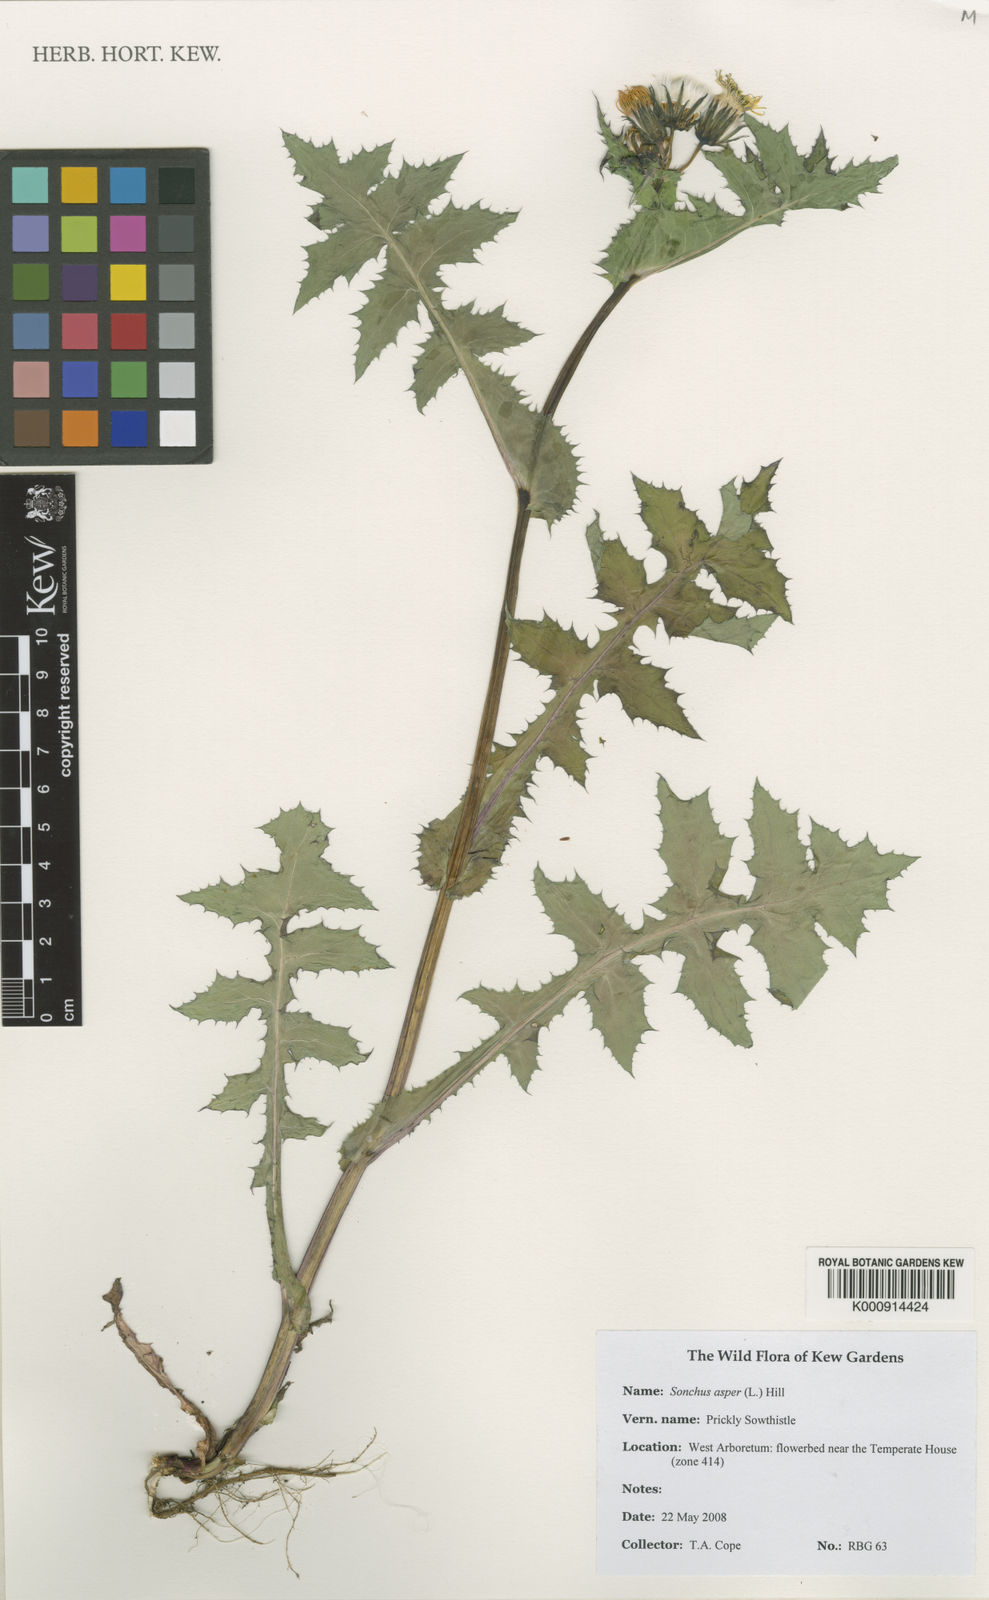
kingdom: Plantae
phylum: Tracheophyta
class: Magnoliopsida
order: Asterales
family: Asteraceae
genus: Sonchus
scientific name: Sonchus asper
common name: Prickly sow-thistle
